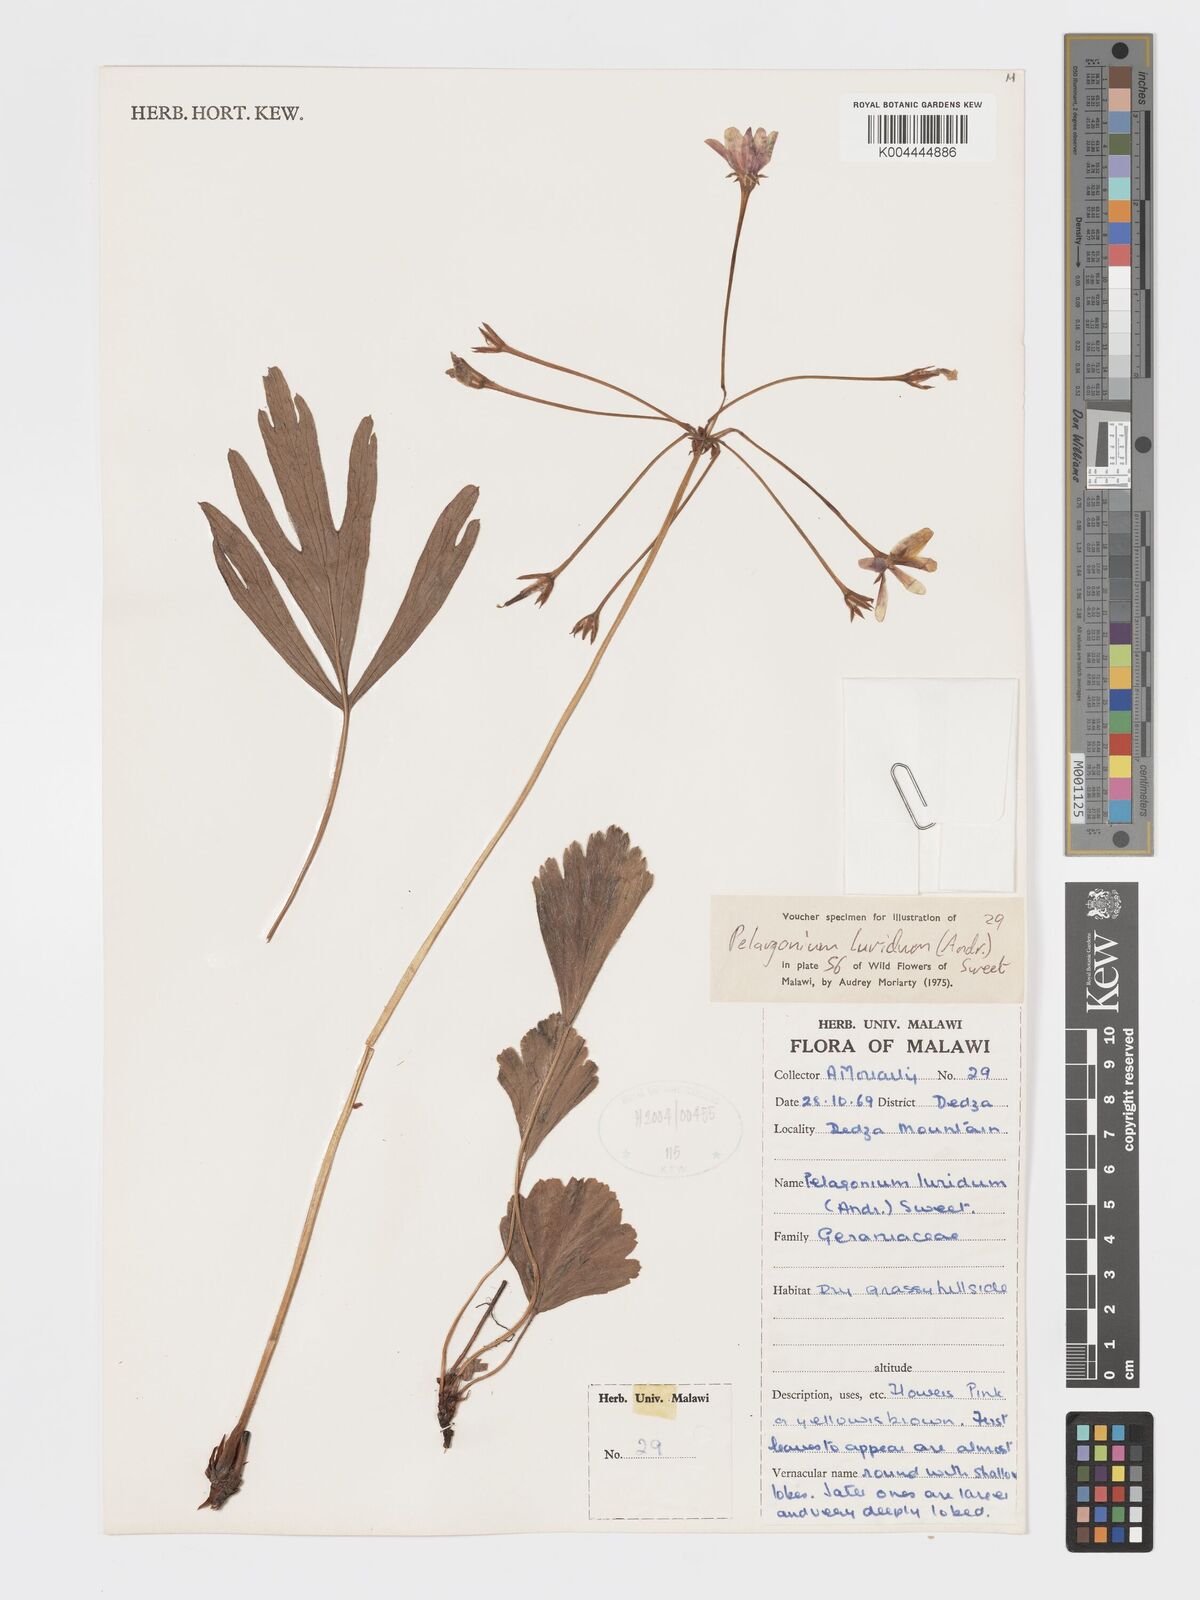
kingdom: Plantae
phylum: Tracheophyta
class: Magnoliopsida
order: Geraniales
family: Geraniaceae
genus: Pelargonium
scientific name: Pelargonium luridum
